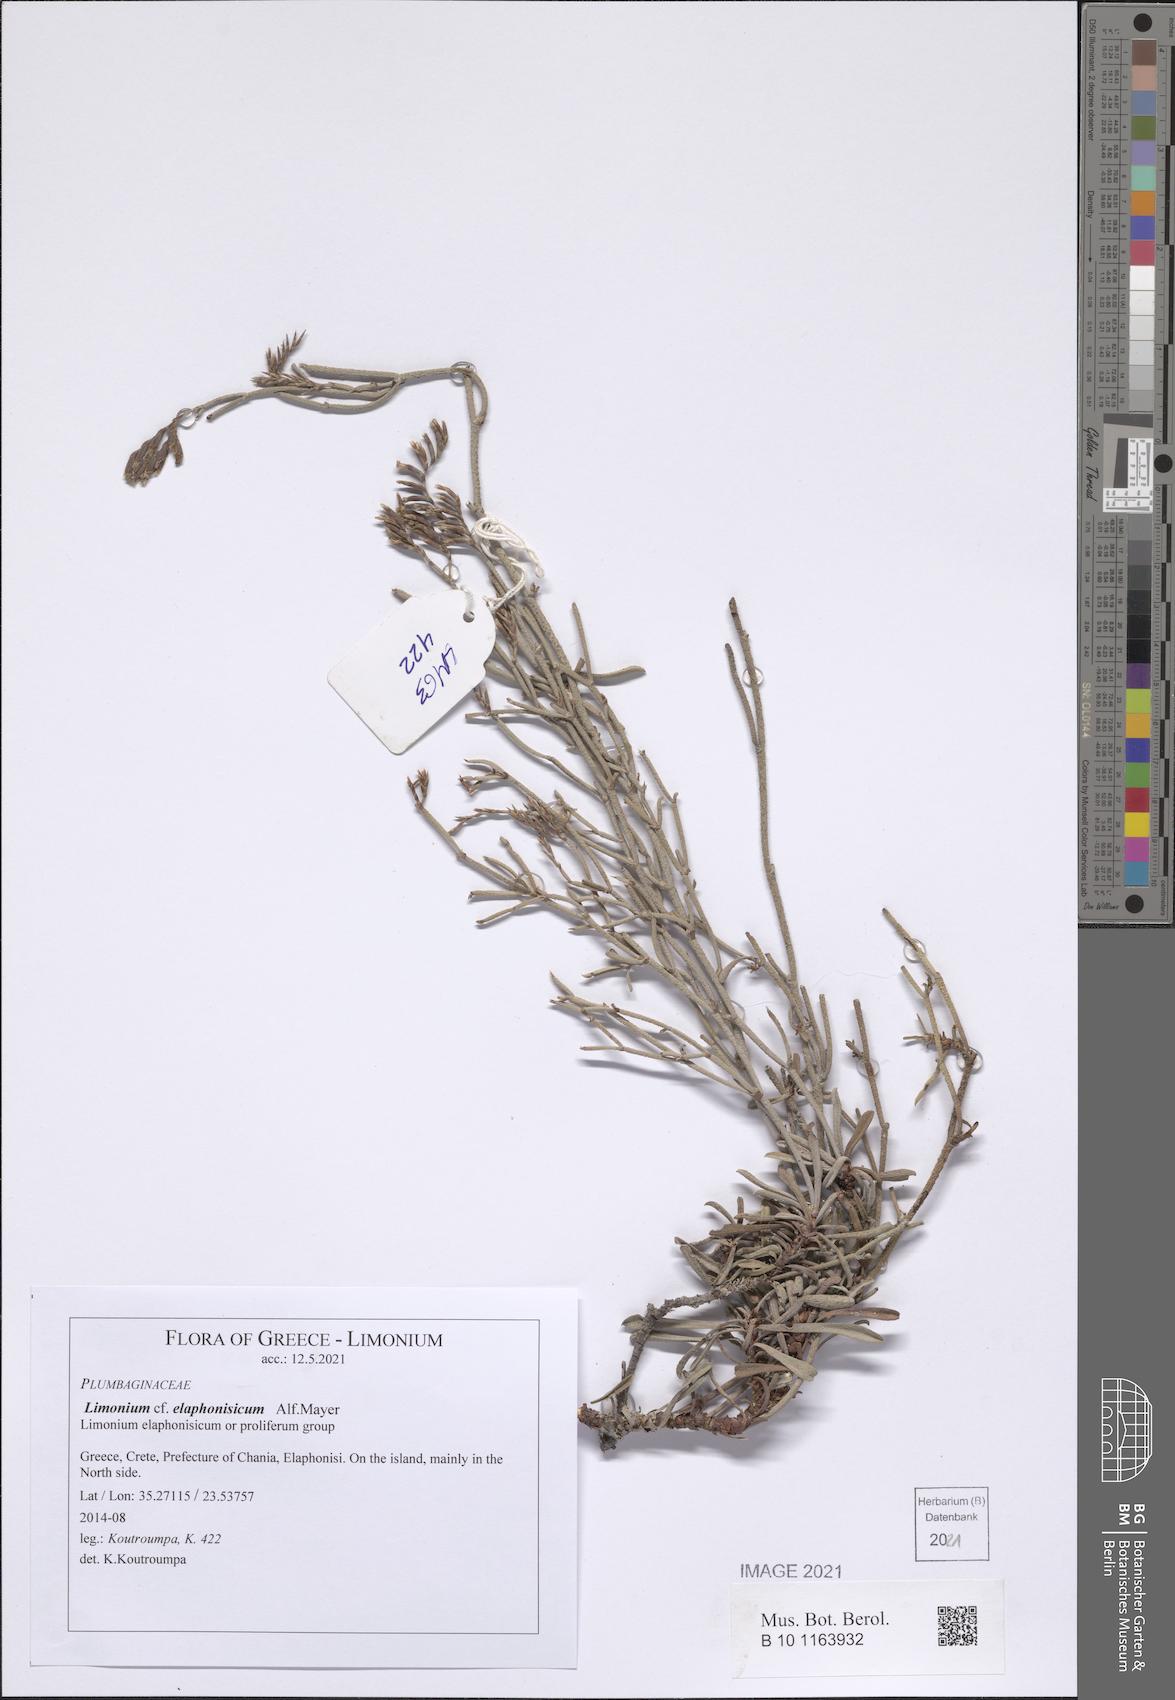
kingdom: Plantae
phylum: Tracheophyta
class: Magnoliopsida
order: Caryophyllales
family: Plumbaginaceae
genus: Limonium
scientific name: Limonium elaphonisicum
